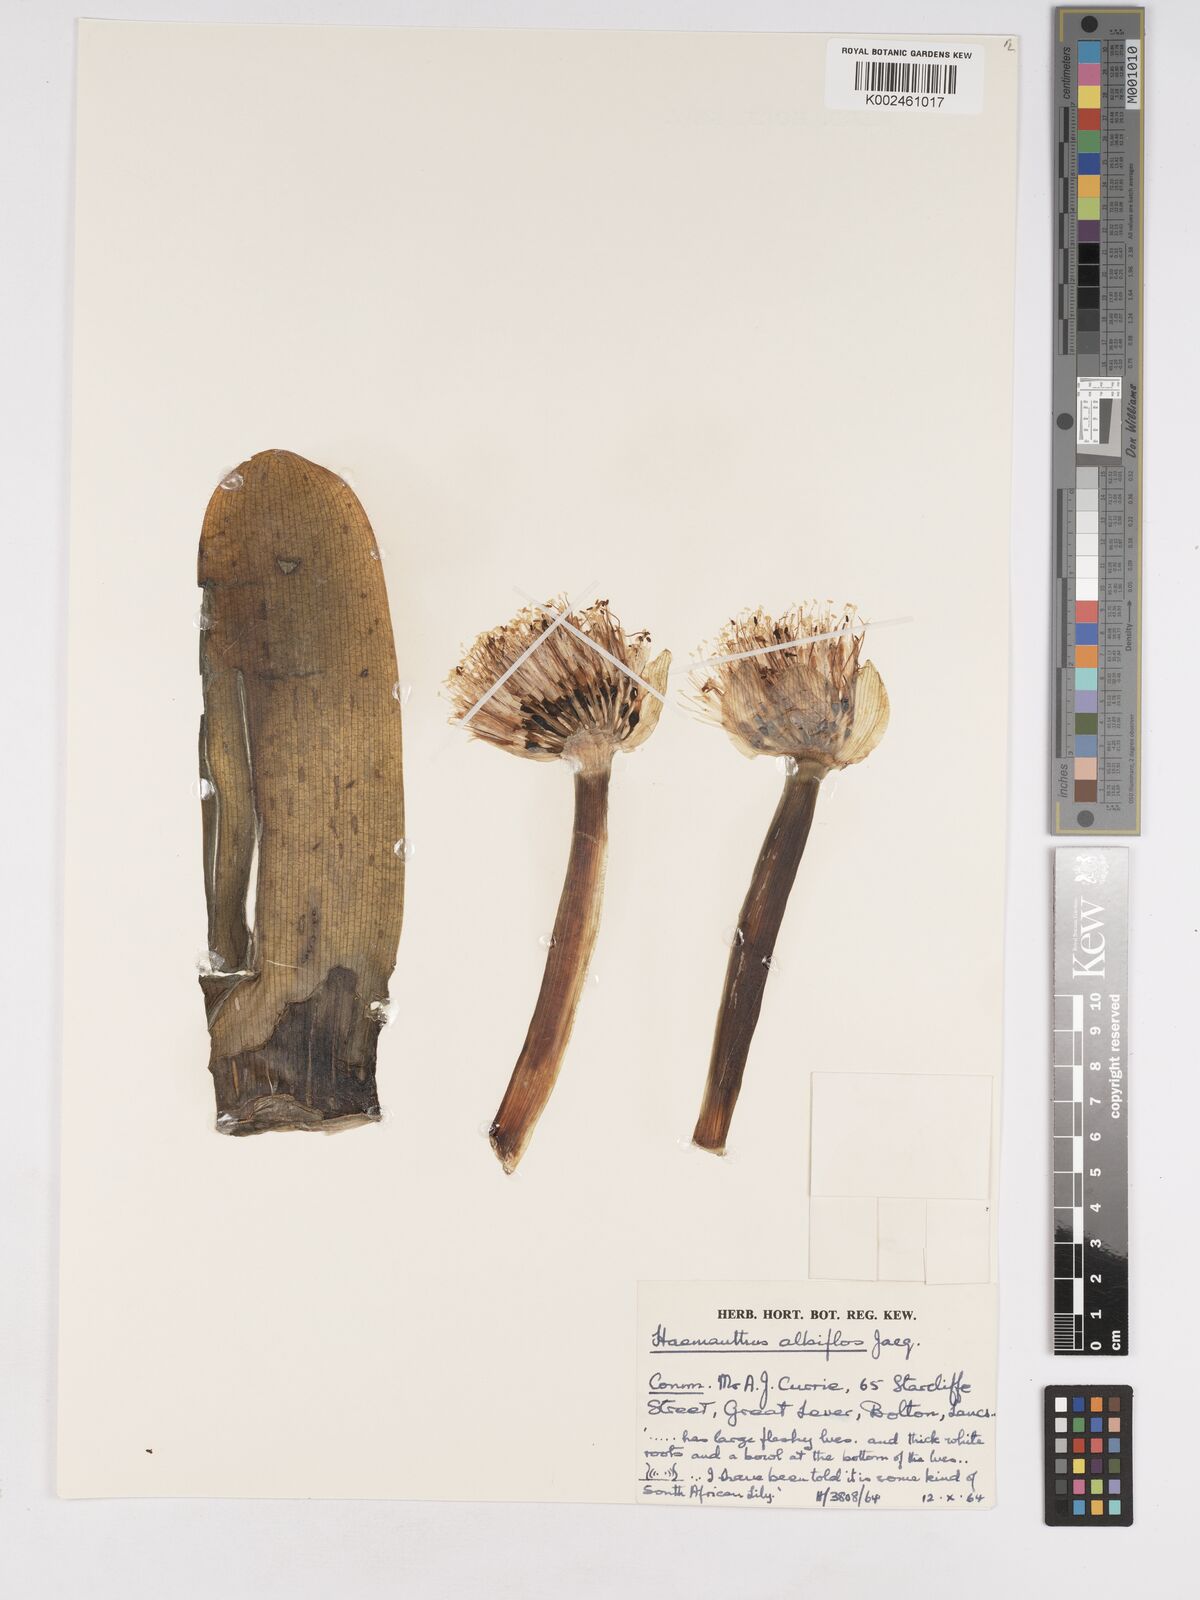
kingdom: Plantae
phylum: Tracheophyta
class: Liliopsida
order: Asparagales
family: Amaryllidaceae
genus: Haemanthus
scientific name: Haemanthus albiflos
